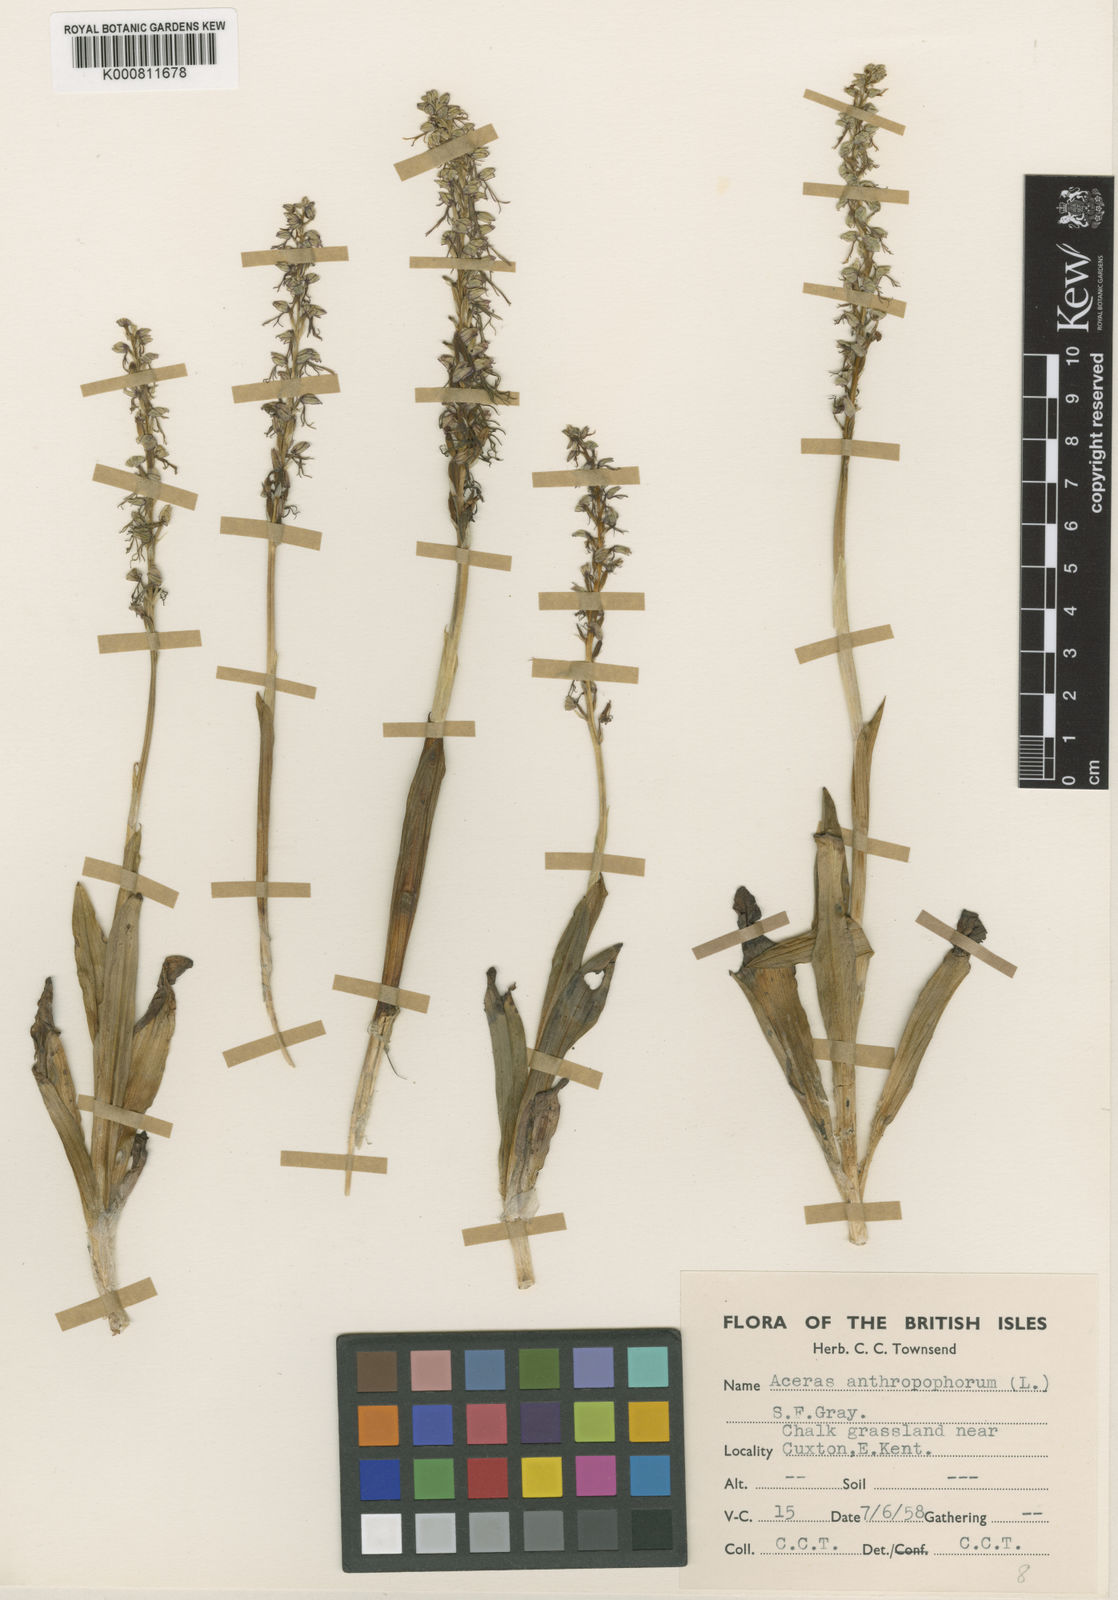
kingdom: Plantae
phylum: Tracheophyta
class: Liliopsida
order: Asparagales
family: Orchidaceae
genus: Orchis
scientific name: Orchis
